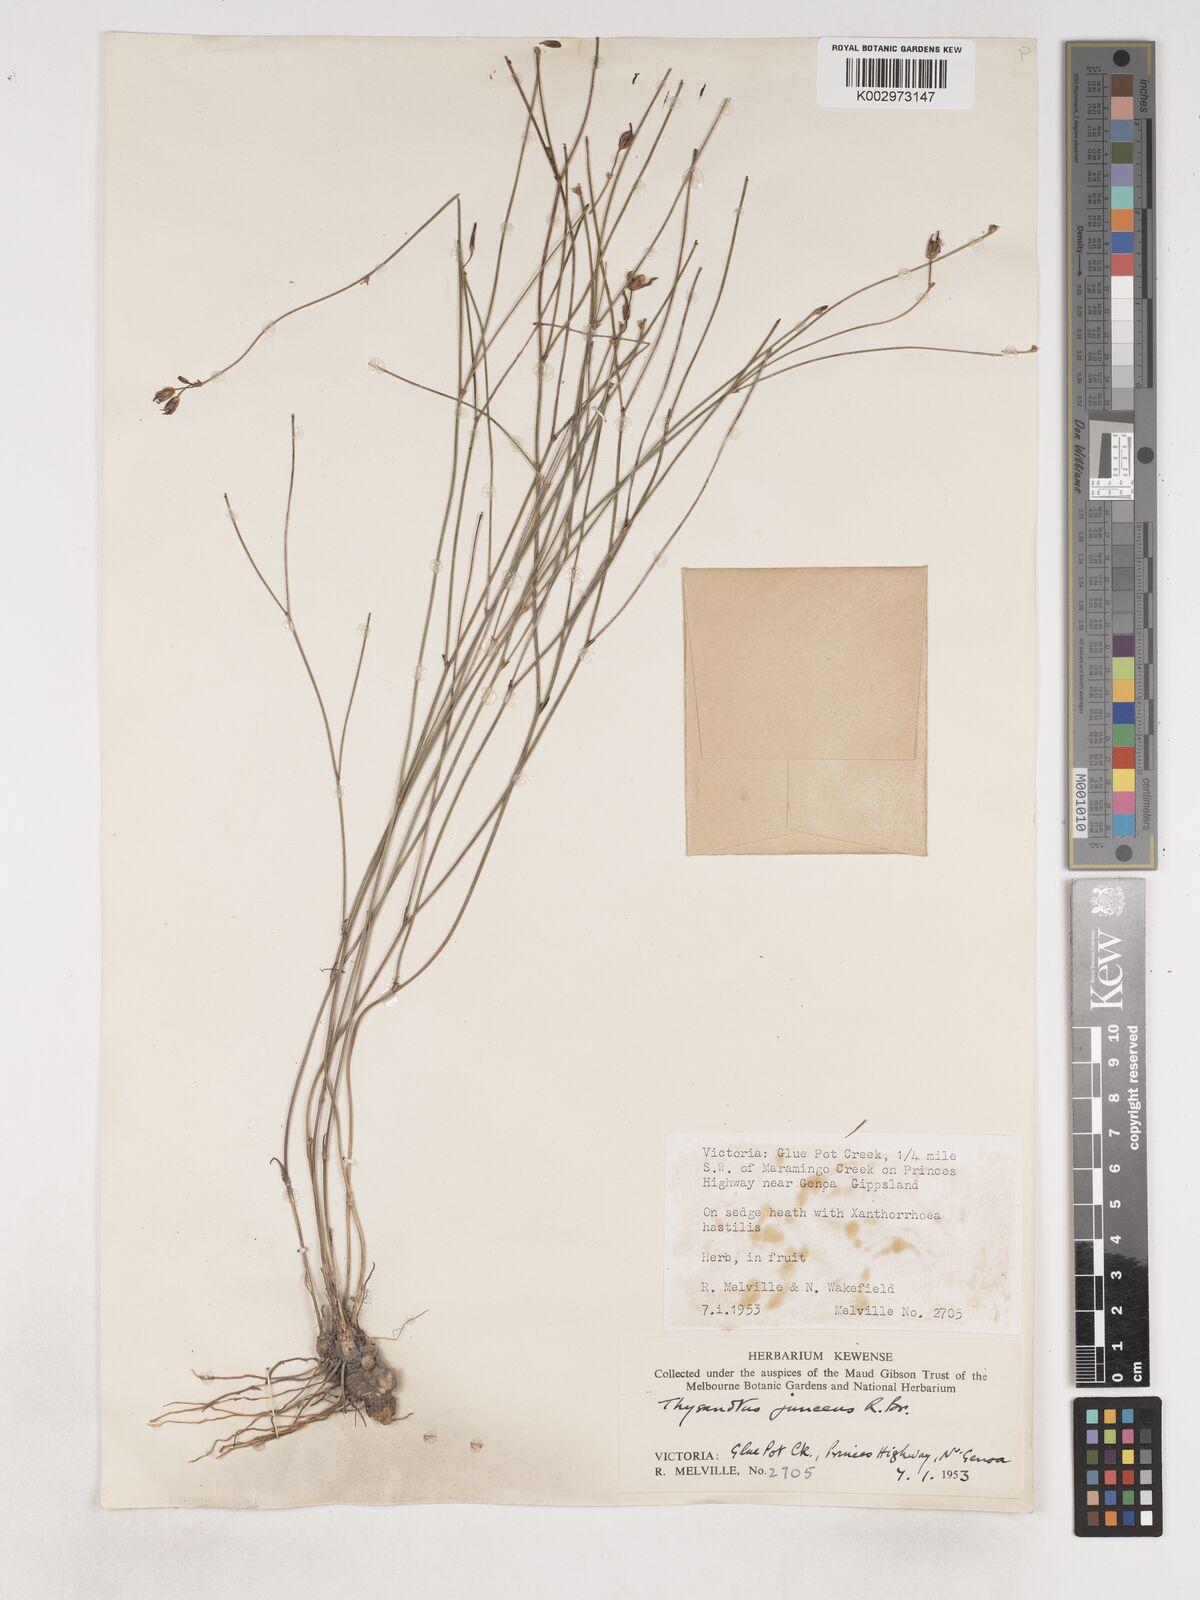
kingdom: Plantae
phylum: Tracheophyta
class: Liliopsida
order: Asparagales
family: Asparagaceae
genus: Thysanotus
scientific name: Thysanotus juncifolius
